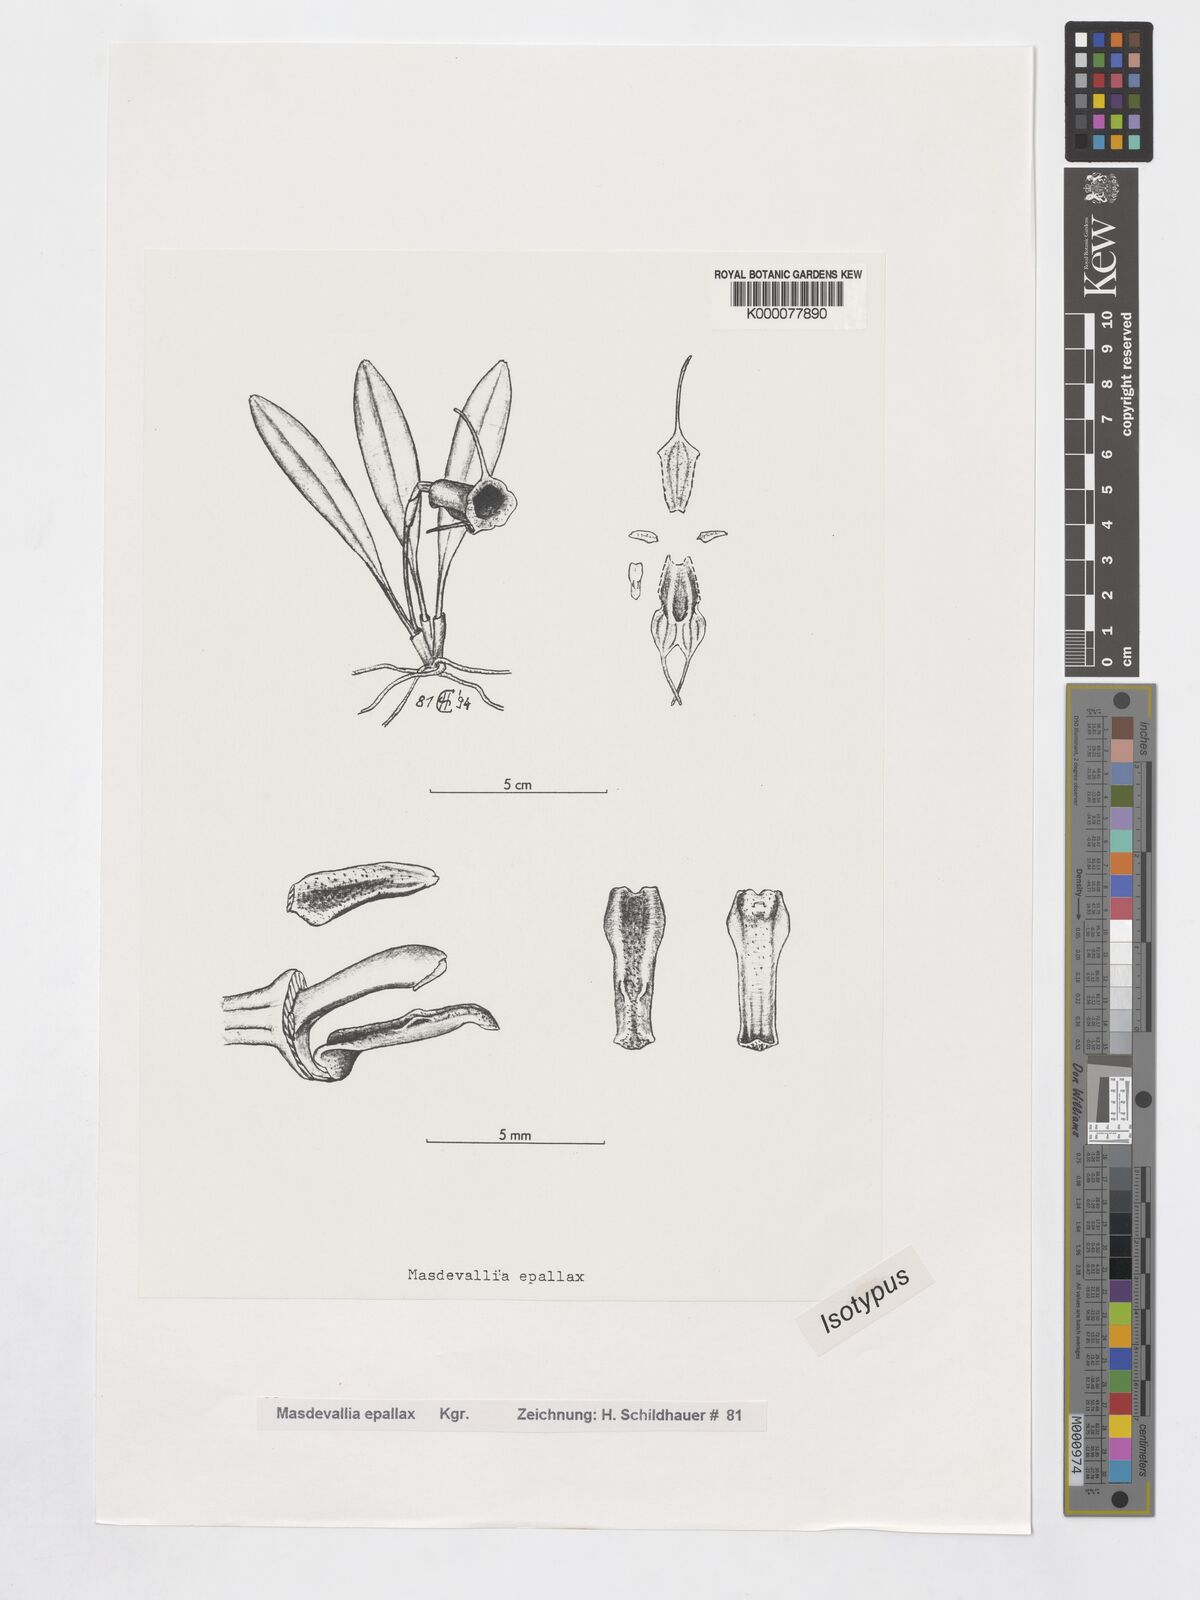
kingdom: Plantae
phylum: Tracheophyta
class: Liliopsida
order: Asparagales
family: Orchidaceae
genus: Masdevallia
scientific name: Masdevallia
